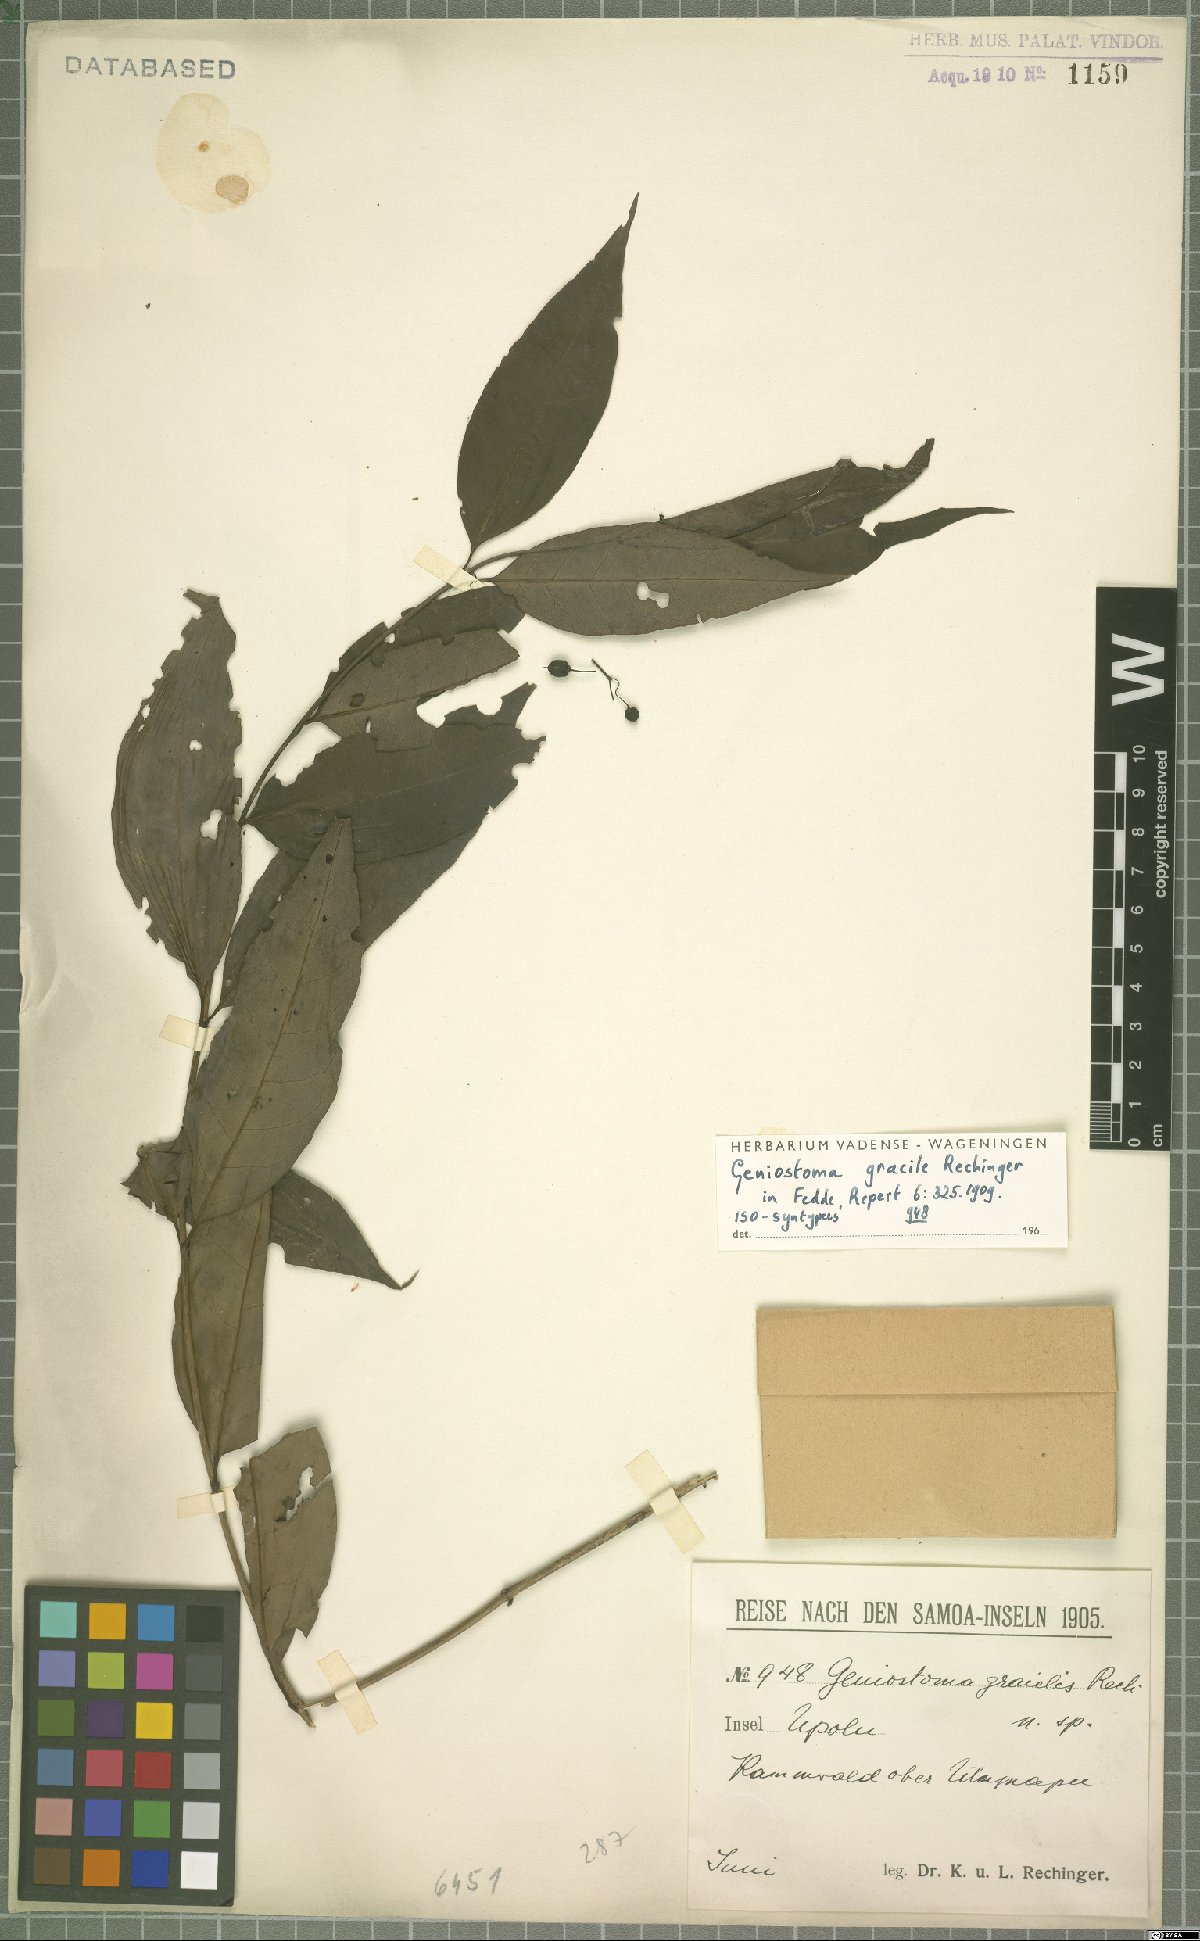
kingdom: Plantae
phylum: Tracheophyta
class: Magnoliopsida
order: Gentianales
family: Loganiaceae
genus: Geniostoma
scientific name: Geniostoma rupestre
